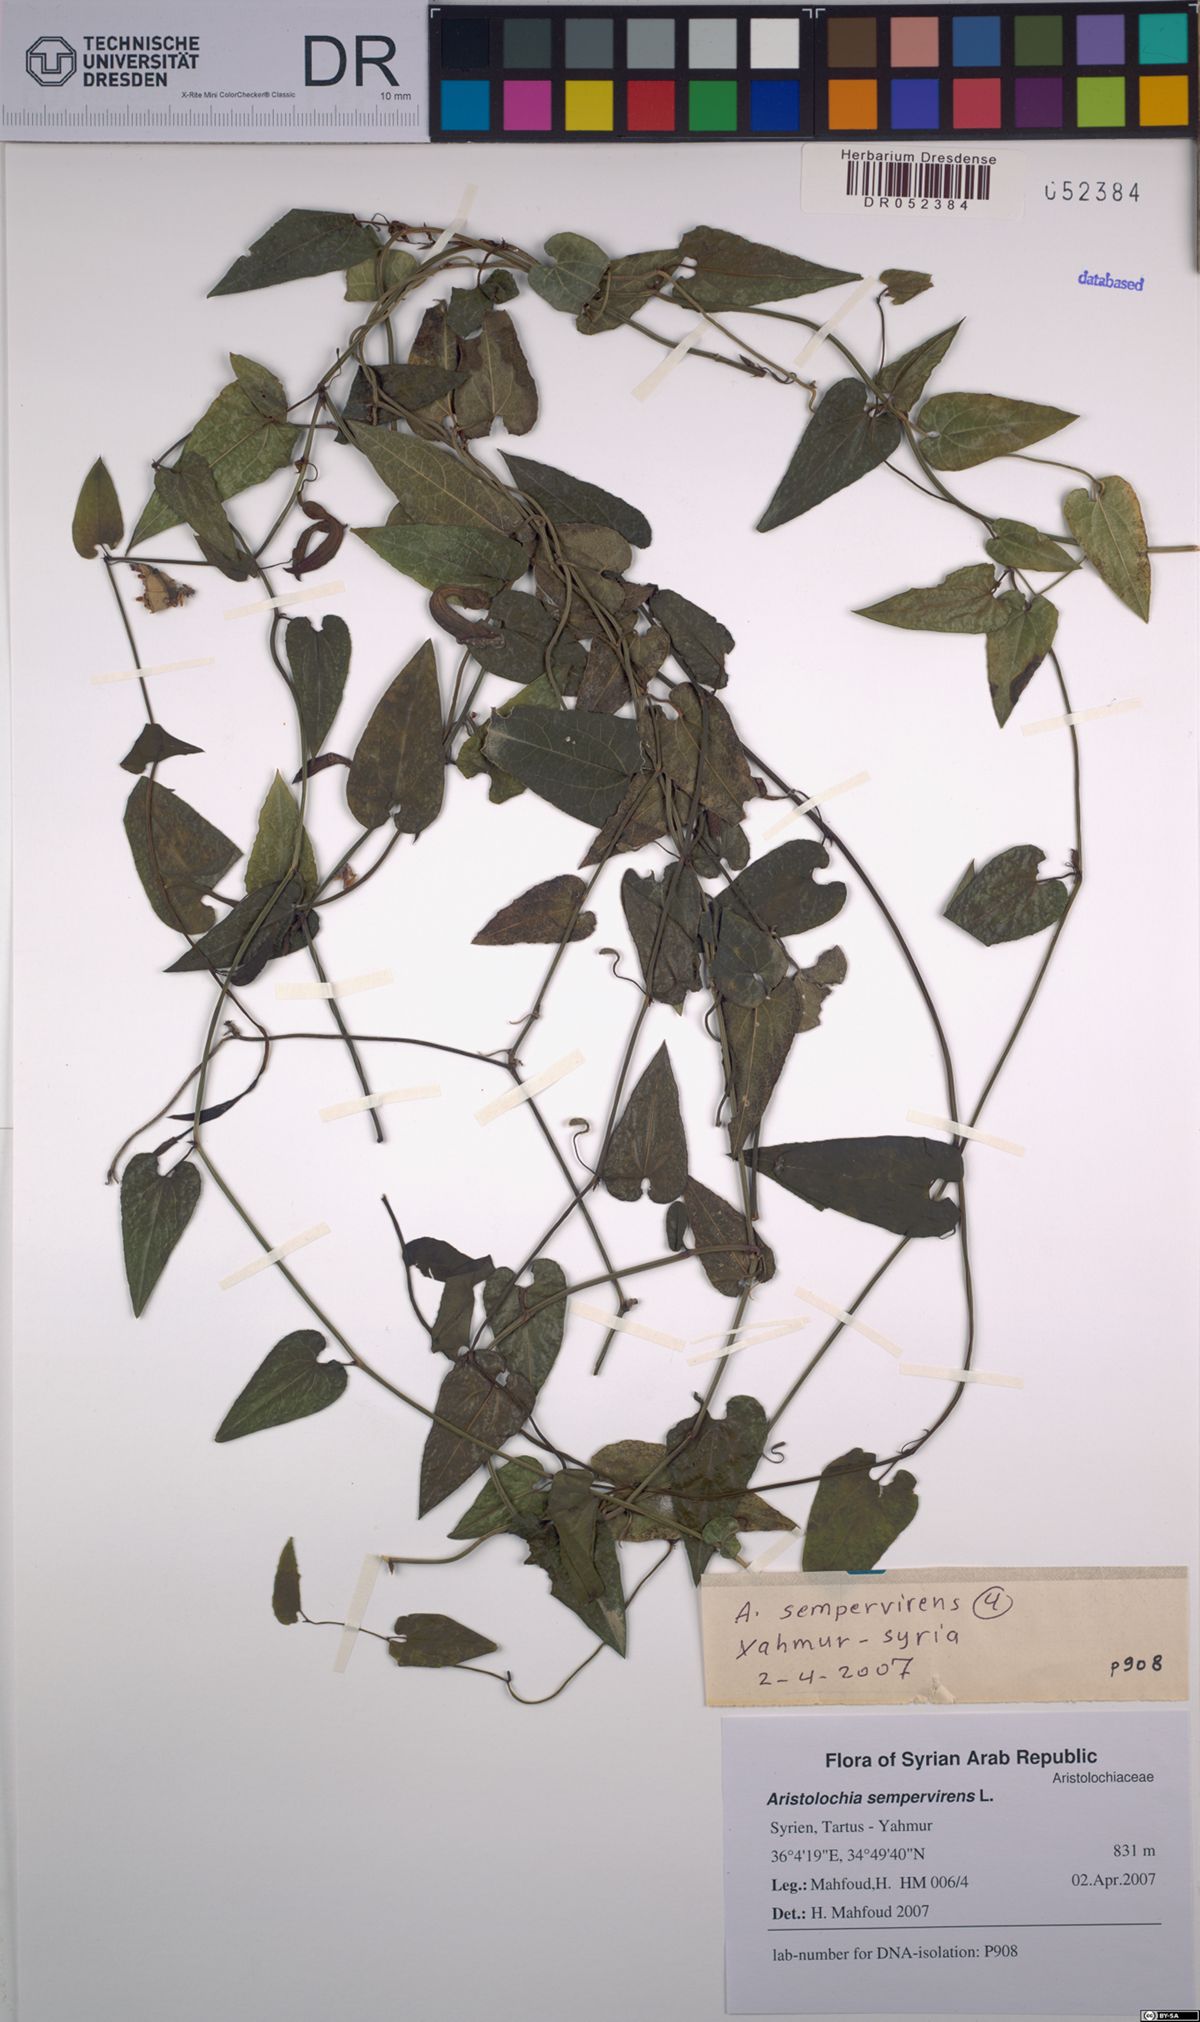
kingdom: Plantae
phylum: Tracheophyta
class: Magnoliopsida
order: Piperales
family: Aristolochiaceae
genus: Aristolochia
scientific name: Aristolochia sempervirens
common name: Long birthwort
